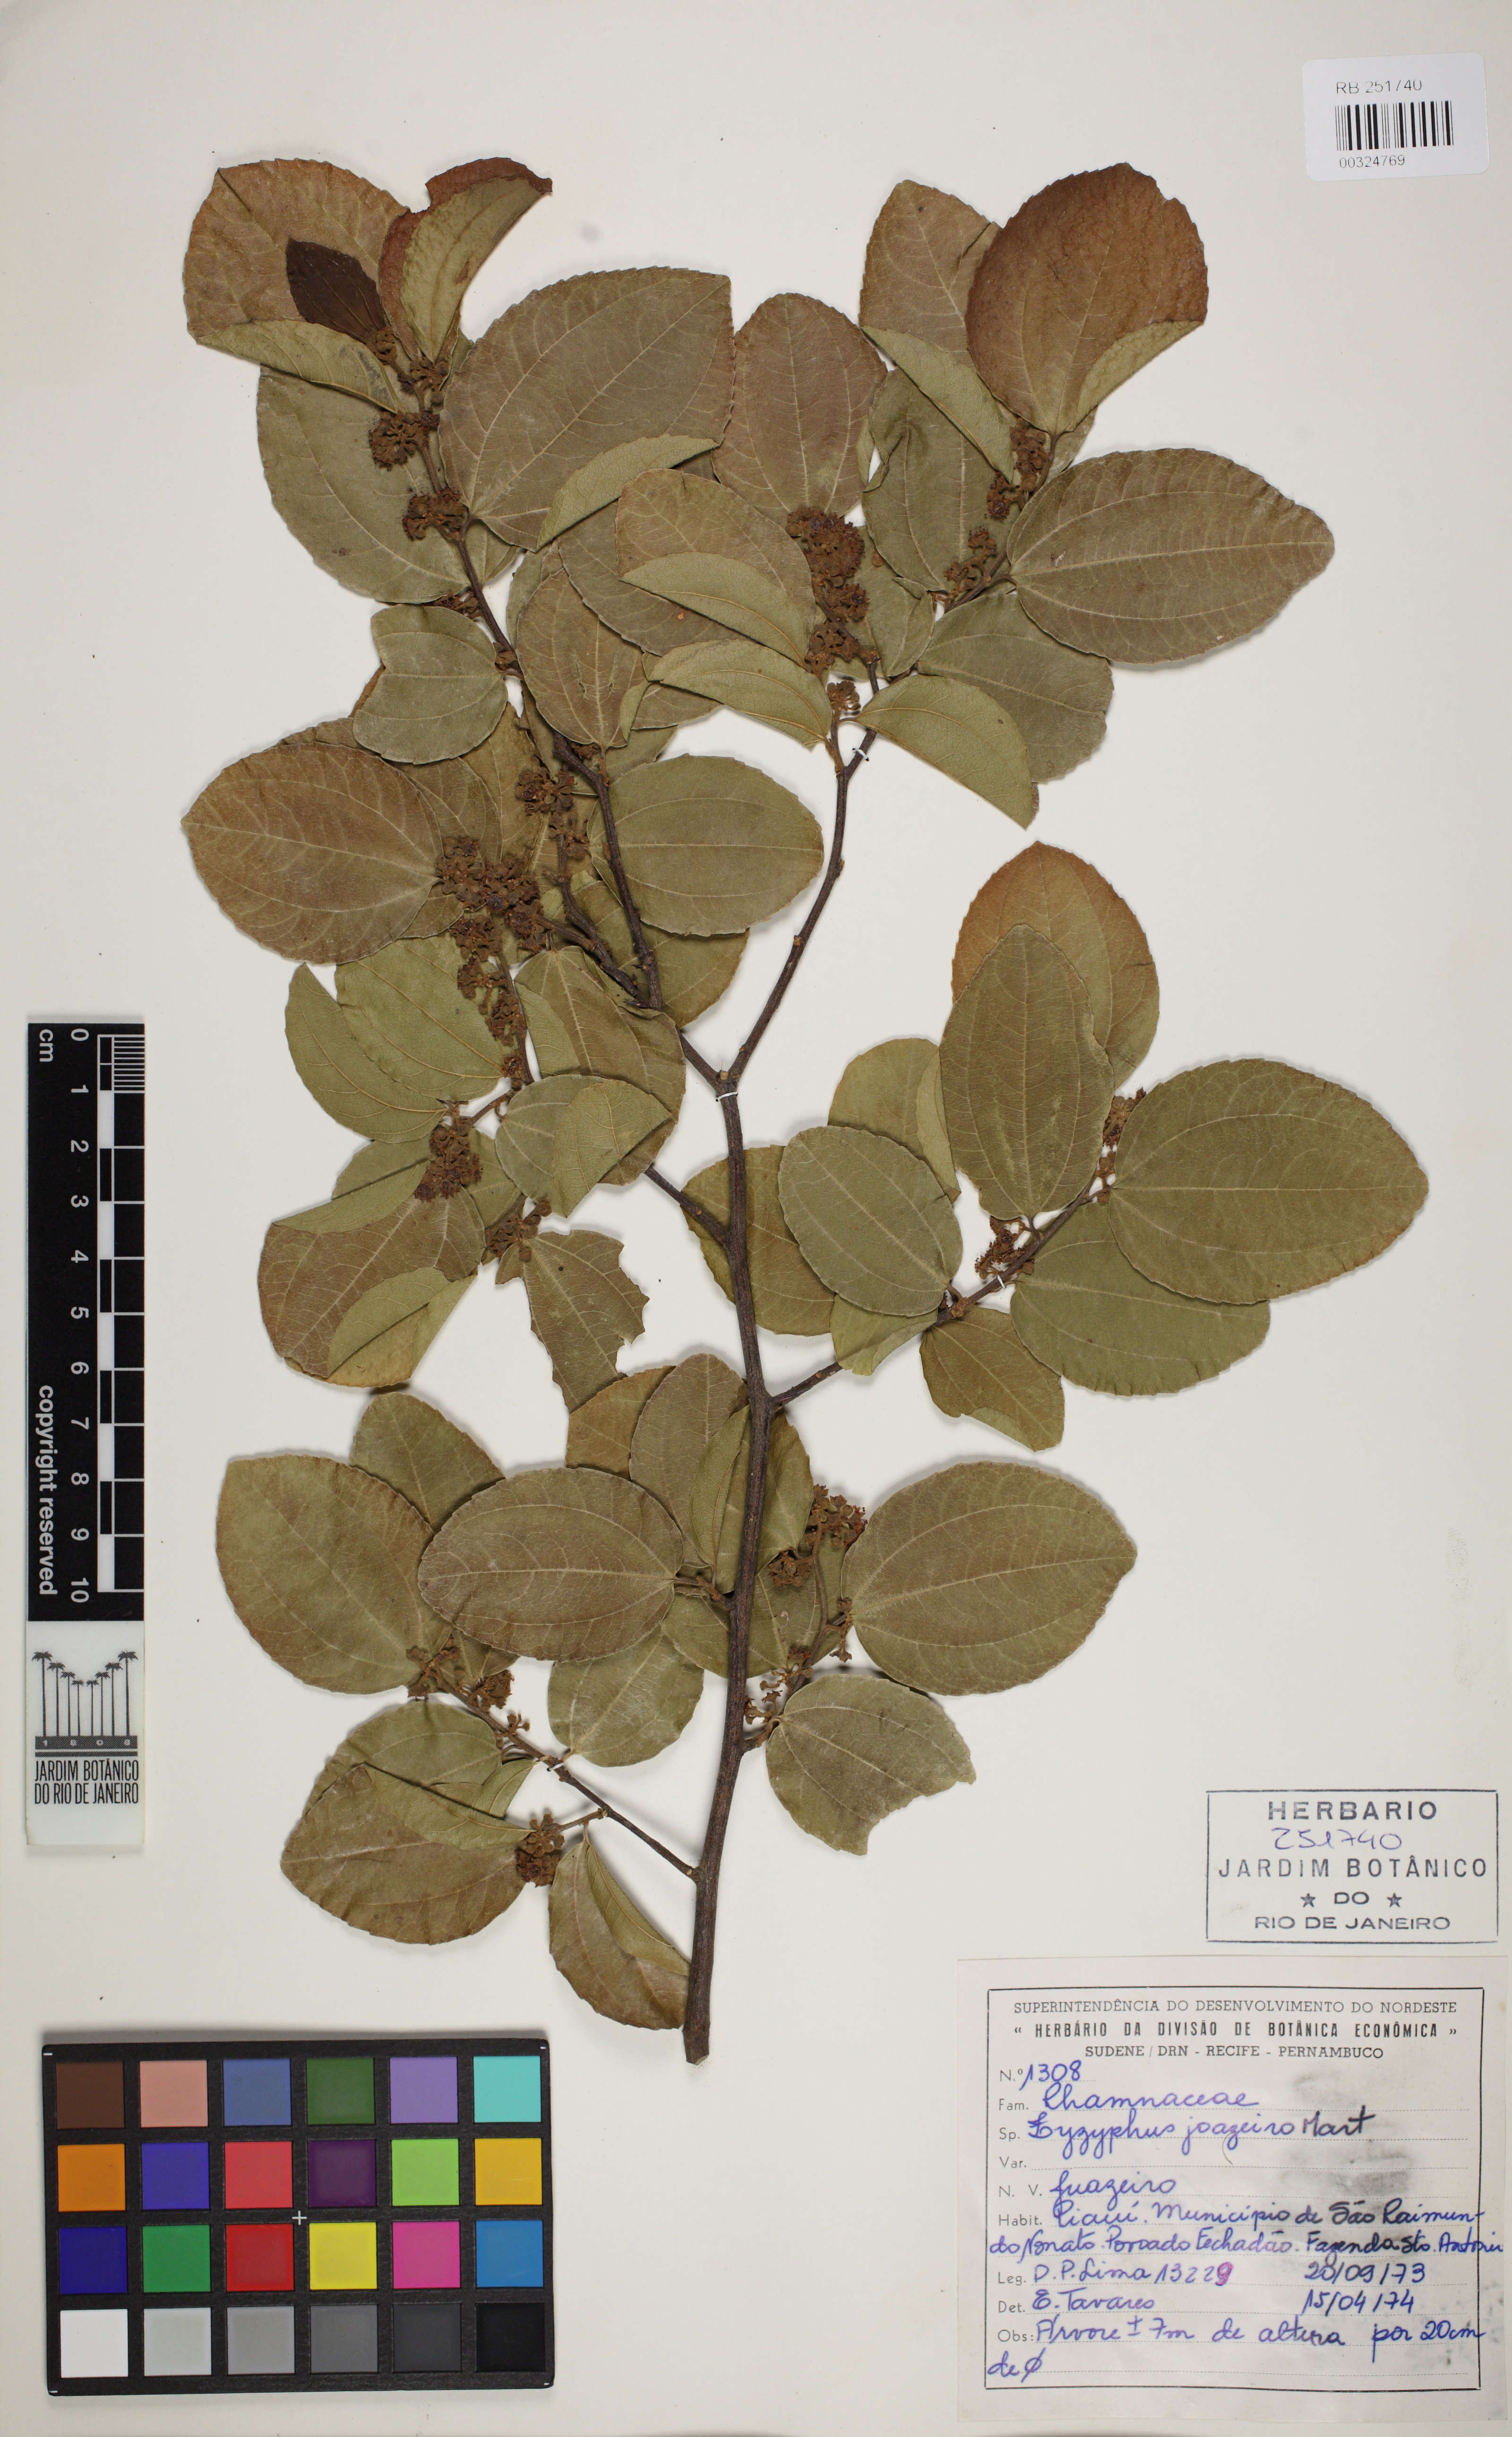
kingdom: Plantae
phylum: Tracheophyta
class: Magnoliopsida
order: Rosales
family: Rhamnaceae
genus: Sarcomphalus
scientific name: Sarcomphalus joazeiro
